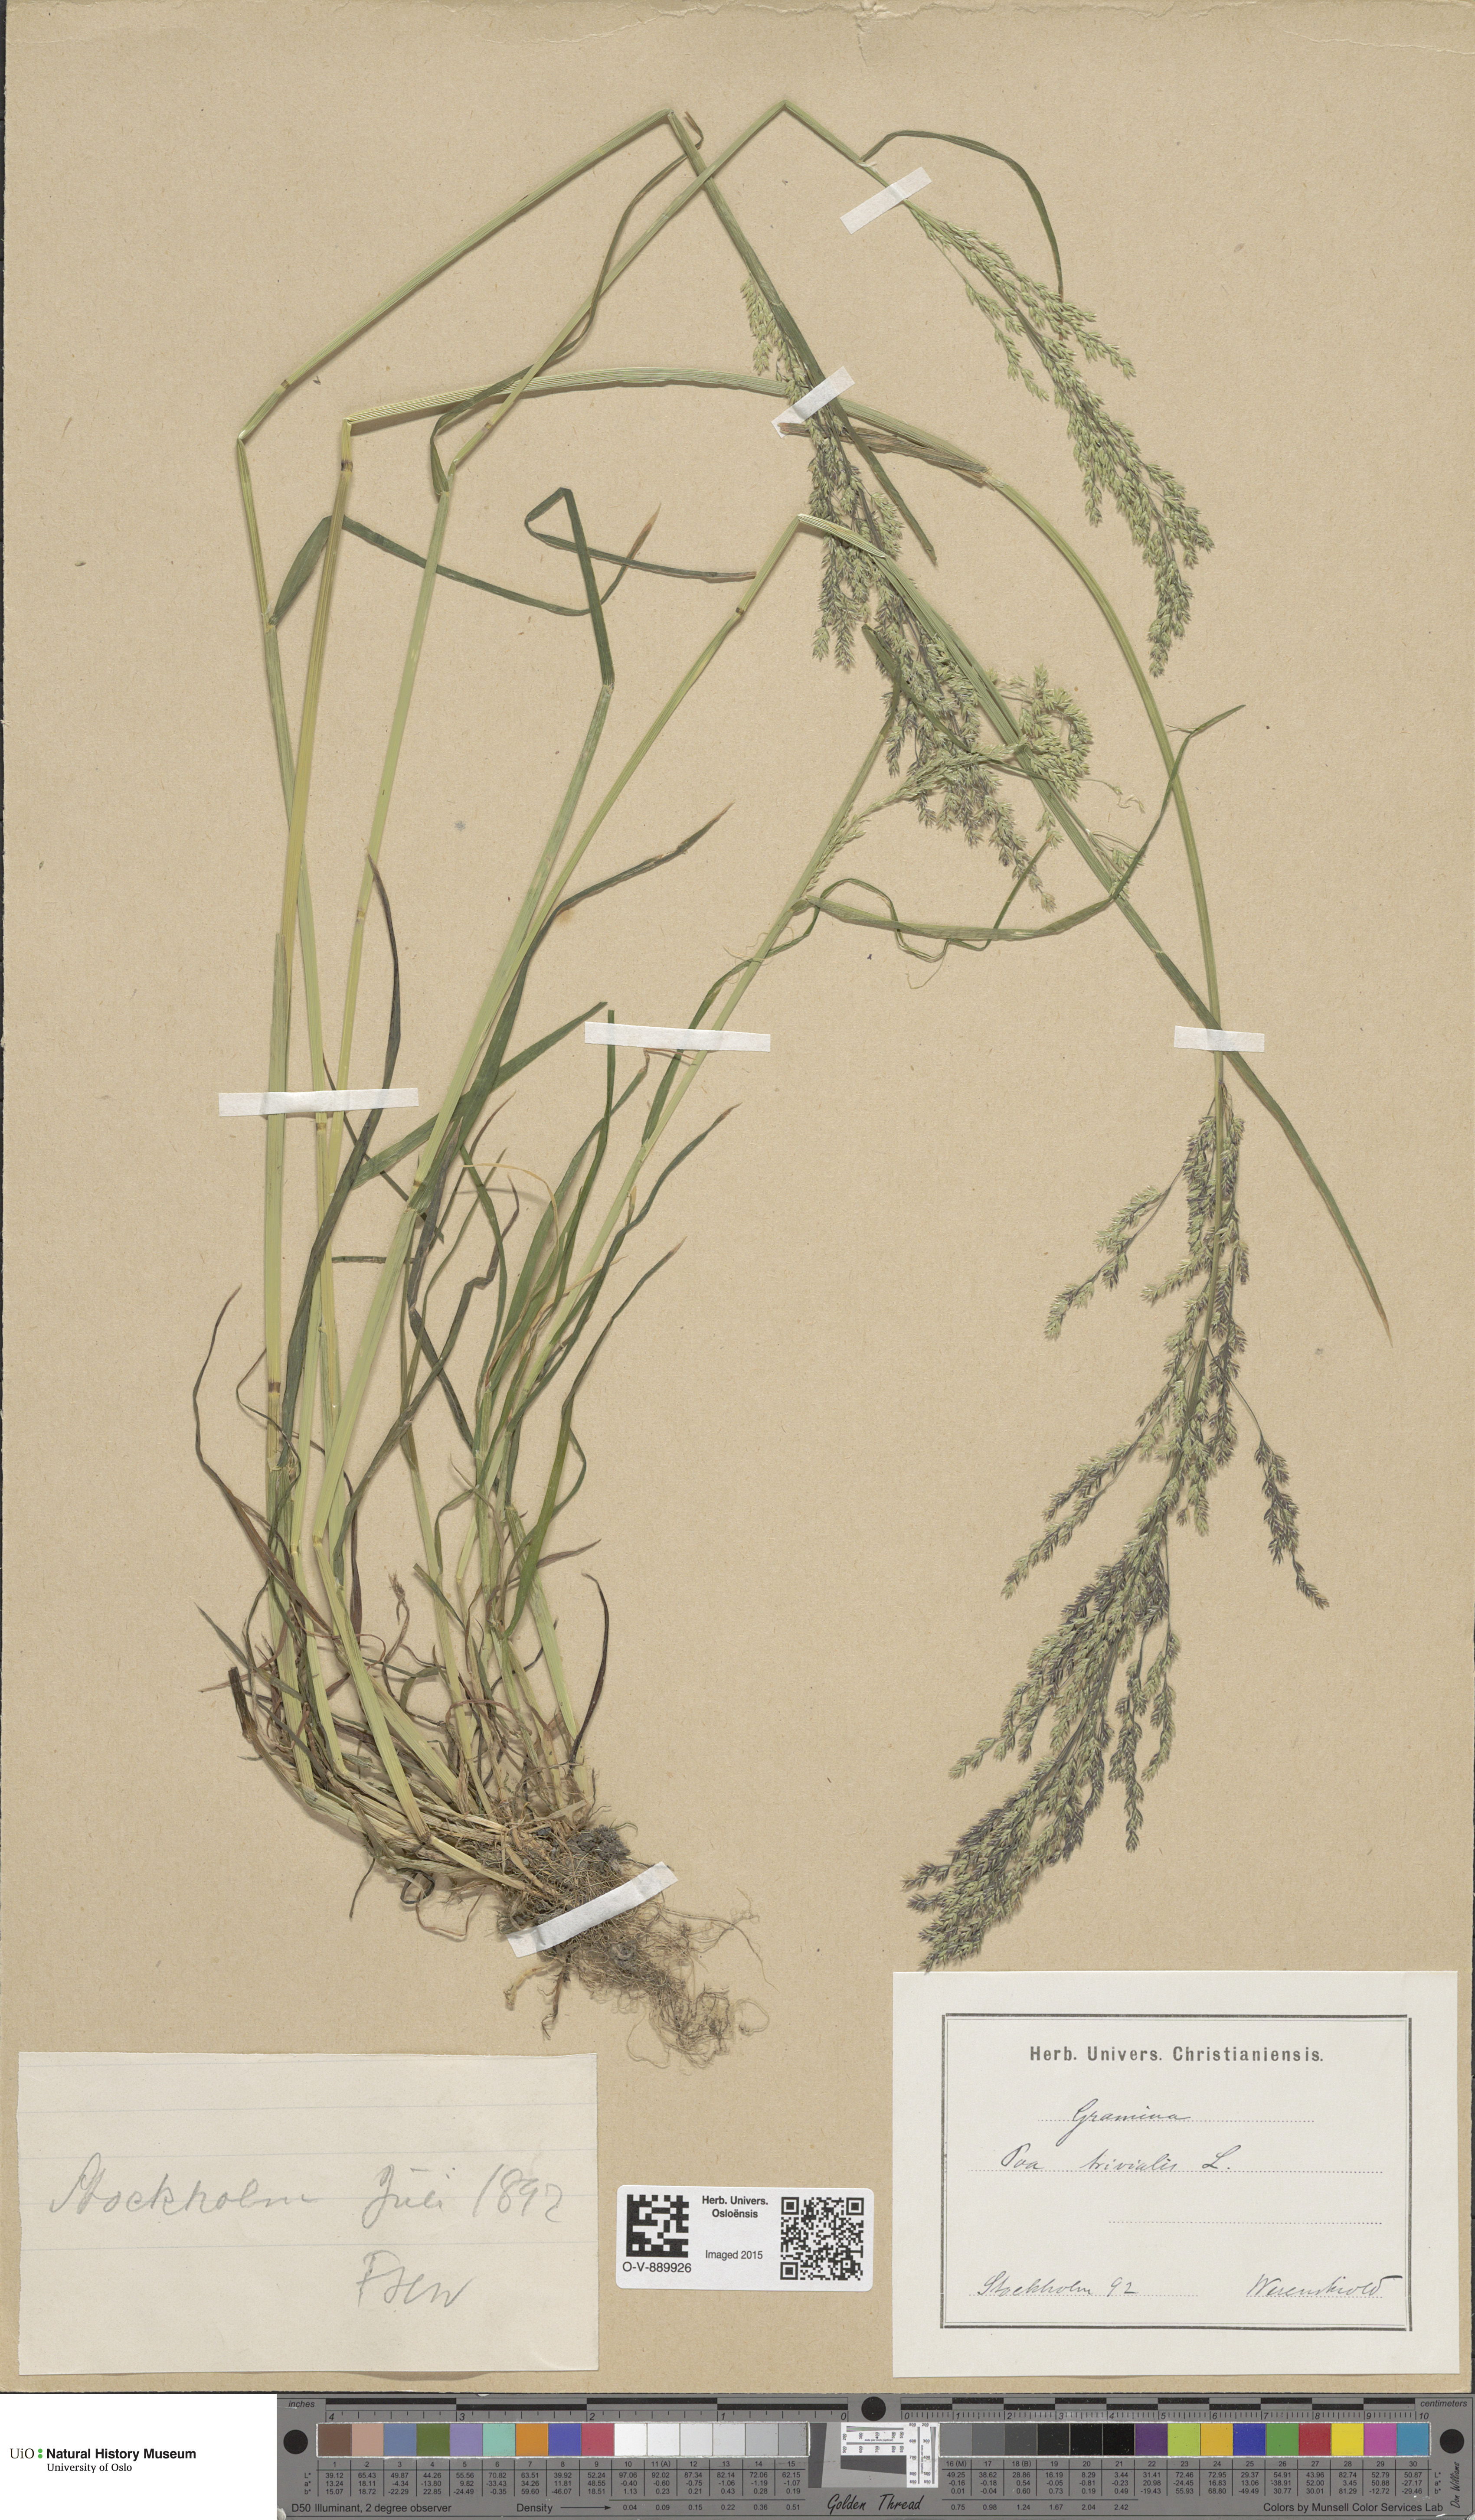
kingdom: Plantae
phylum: Tracheophyta
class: Liliopsida
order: Poales
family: Poaceae
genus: Poa
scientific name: Poa trivialis
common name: Rough bluegrass
